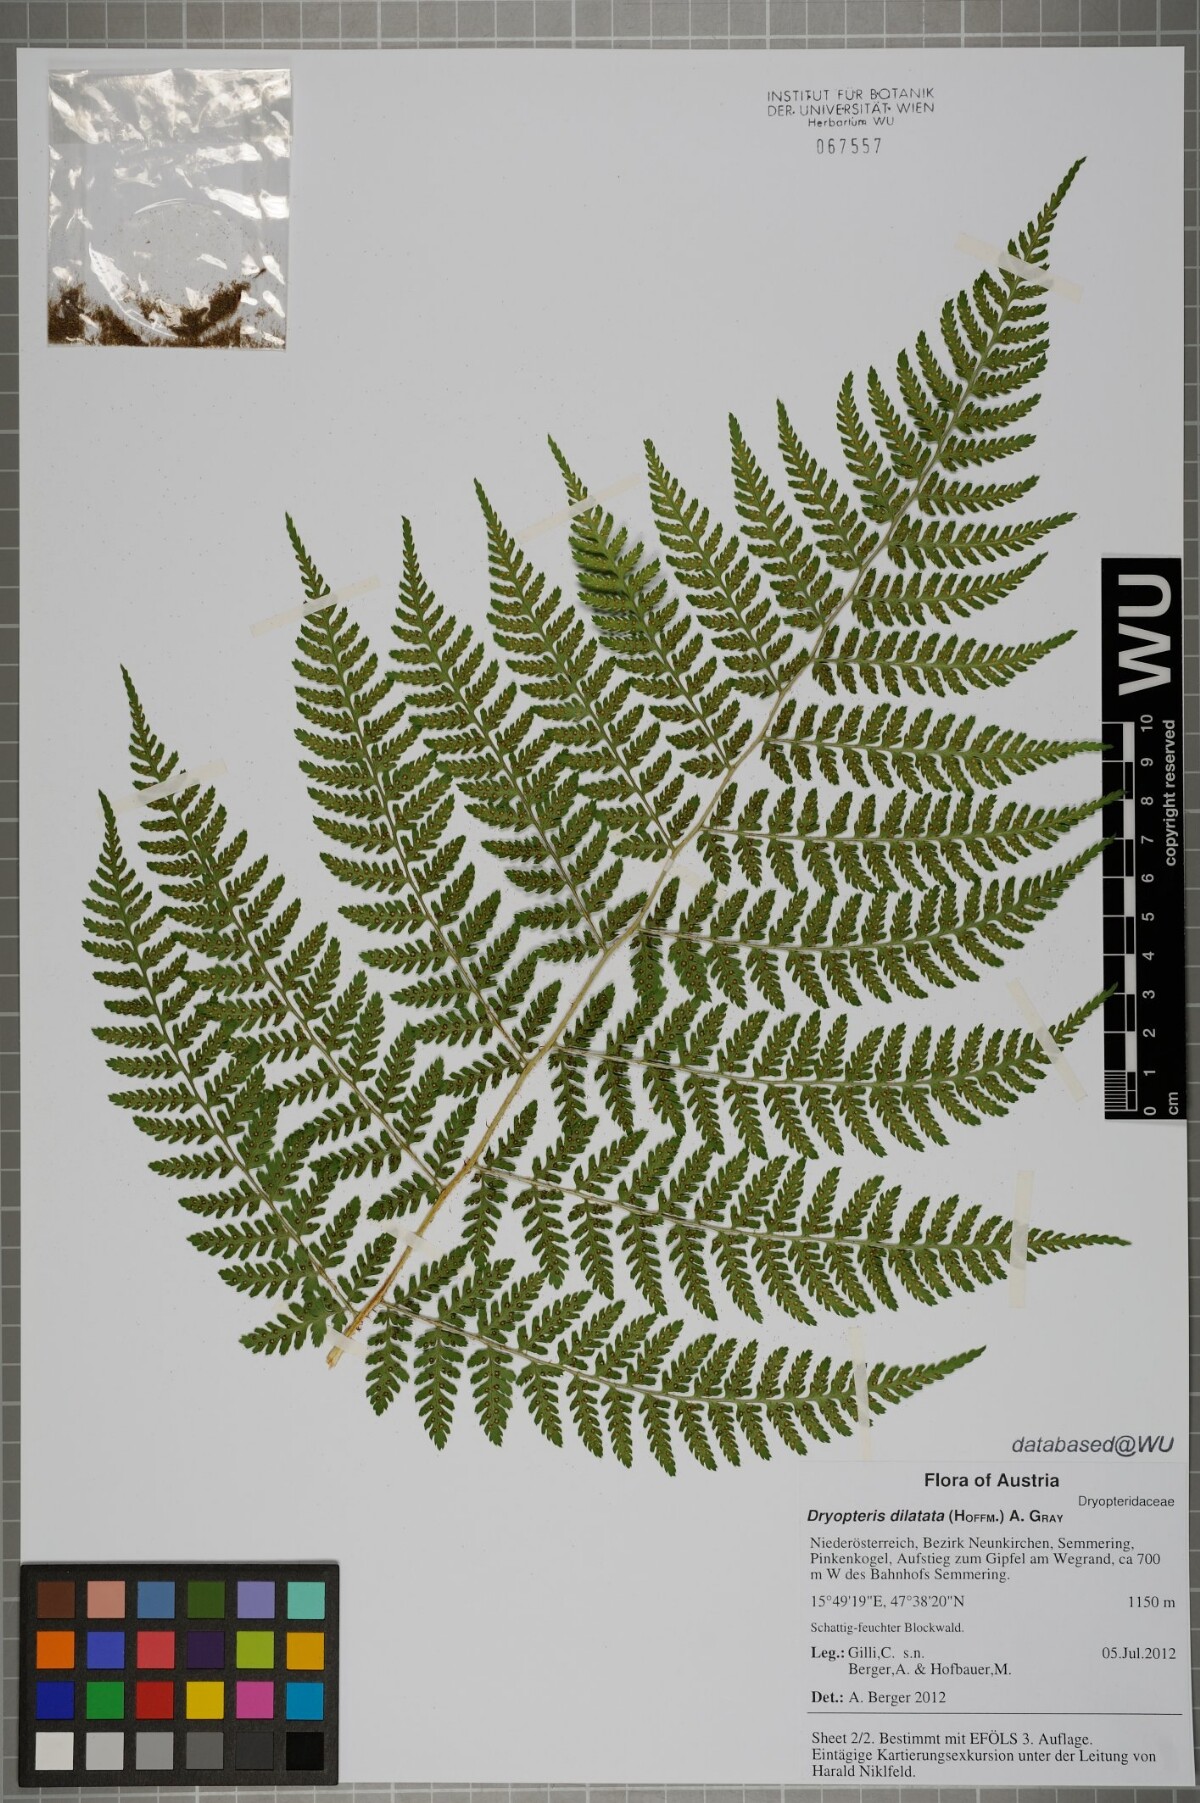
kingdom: Plantae
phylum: Tracheophyta
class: Polypodiopsida
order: Polypodiales
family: Dryopteridaceae
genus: Dryopteris
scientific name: Dryopteris dilatata
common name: Broad buckler-fern
